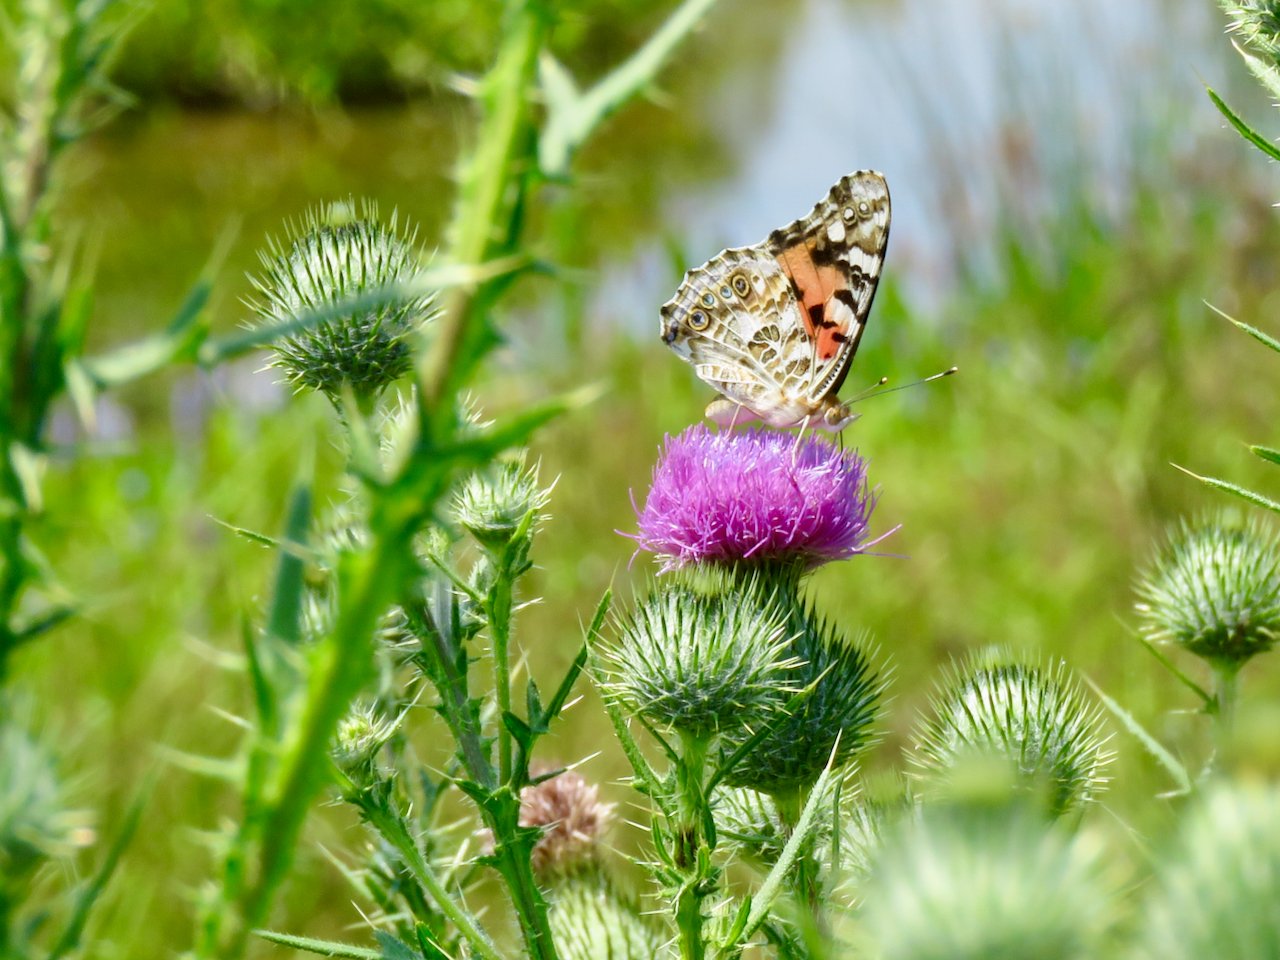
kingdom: Animalia
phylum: Arthropoda
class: Insecta
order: Lepidoptera
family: Nymphalidae
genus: Vanessa
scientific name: Vanessa cardui
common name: Painted Lady
